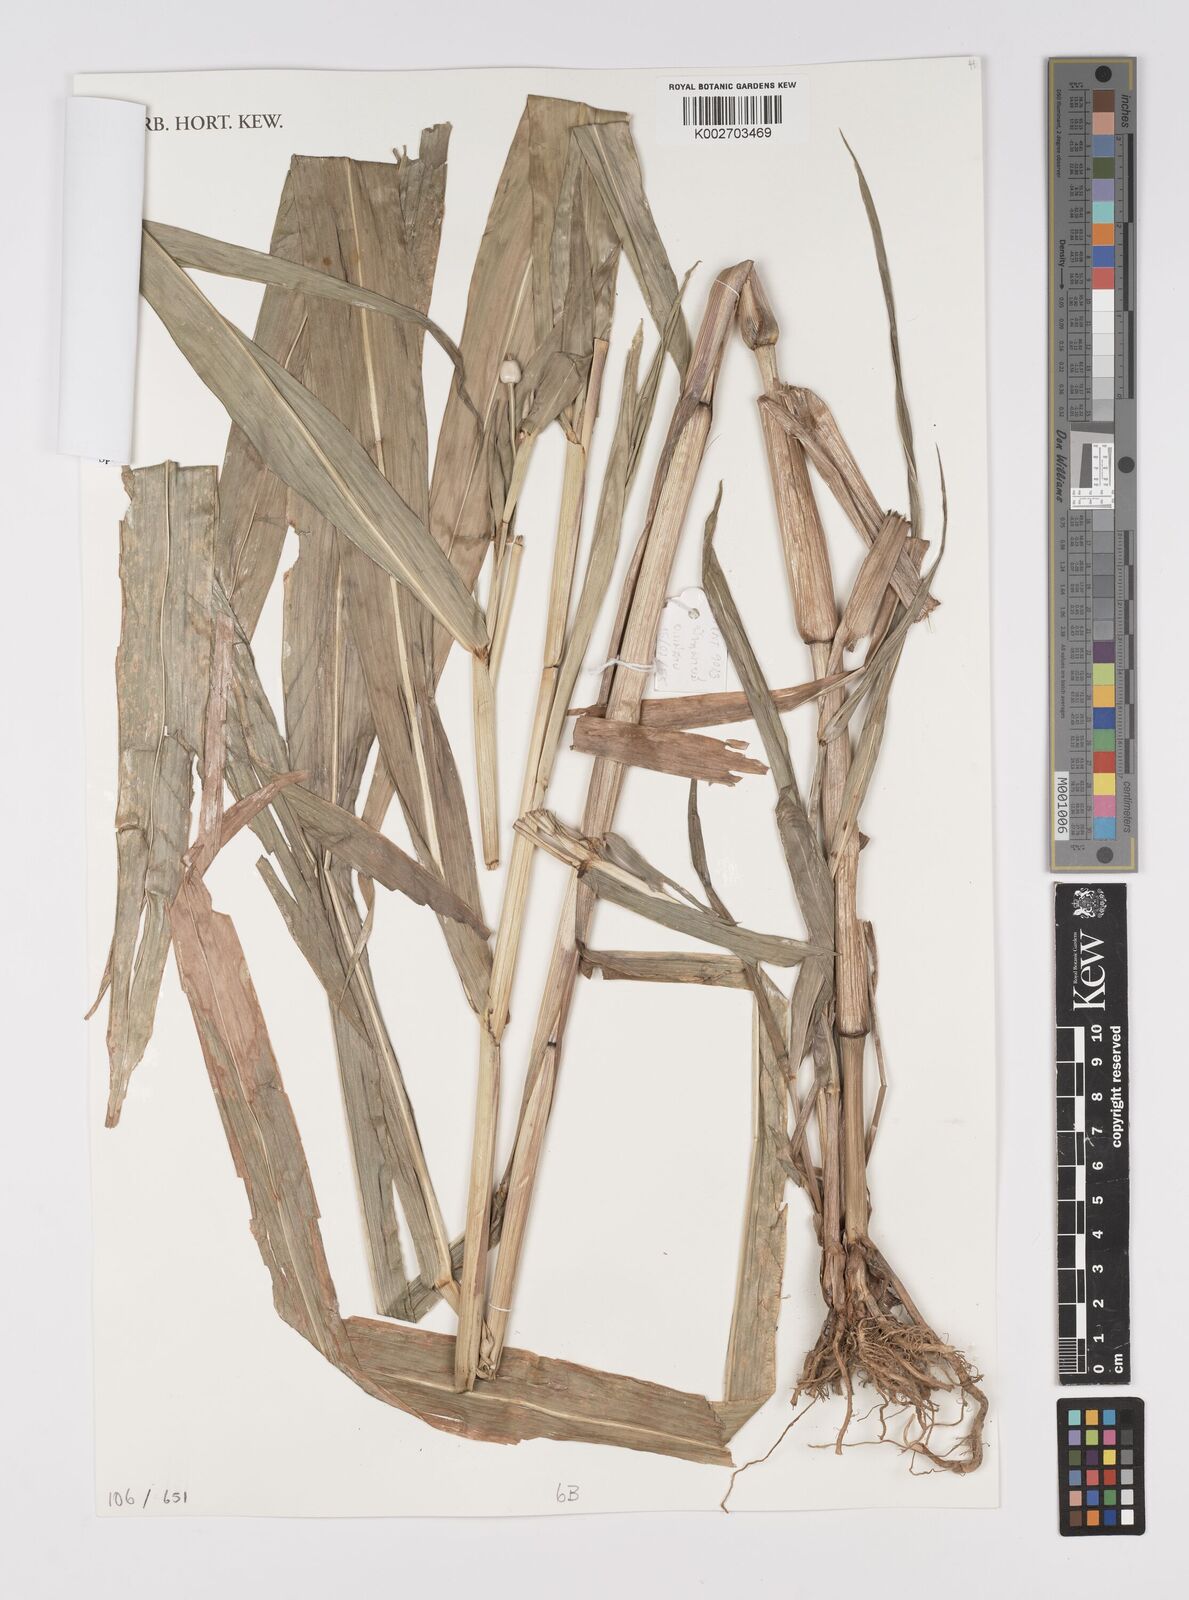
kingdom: Plantae
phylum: Tracheophyta
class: Liliopsida
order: Poales
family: Poaceae
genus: Coix
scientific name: Coix
